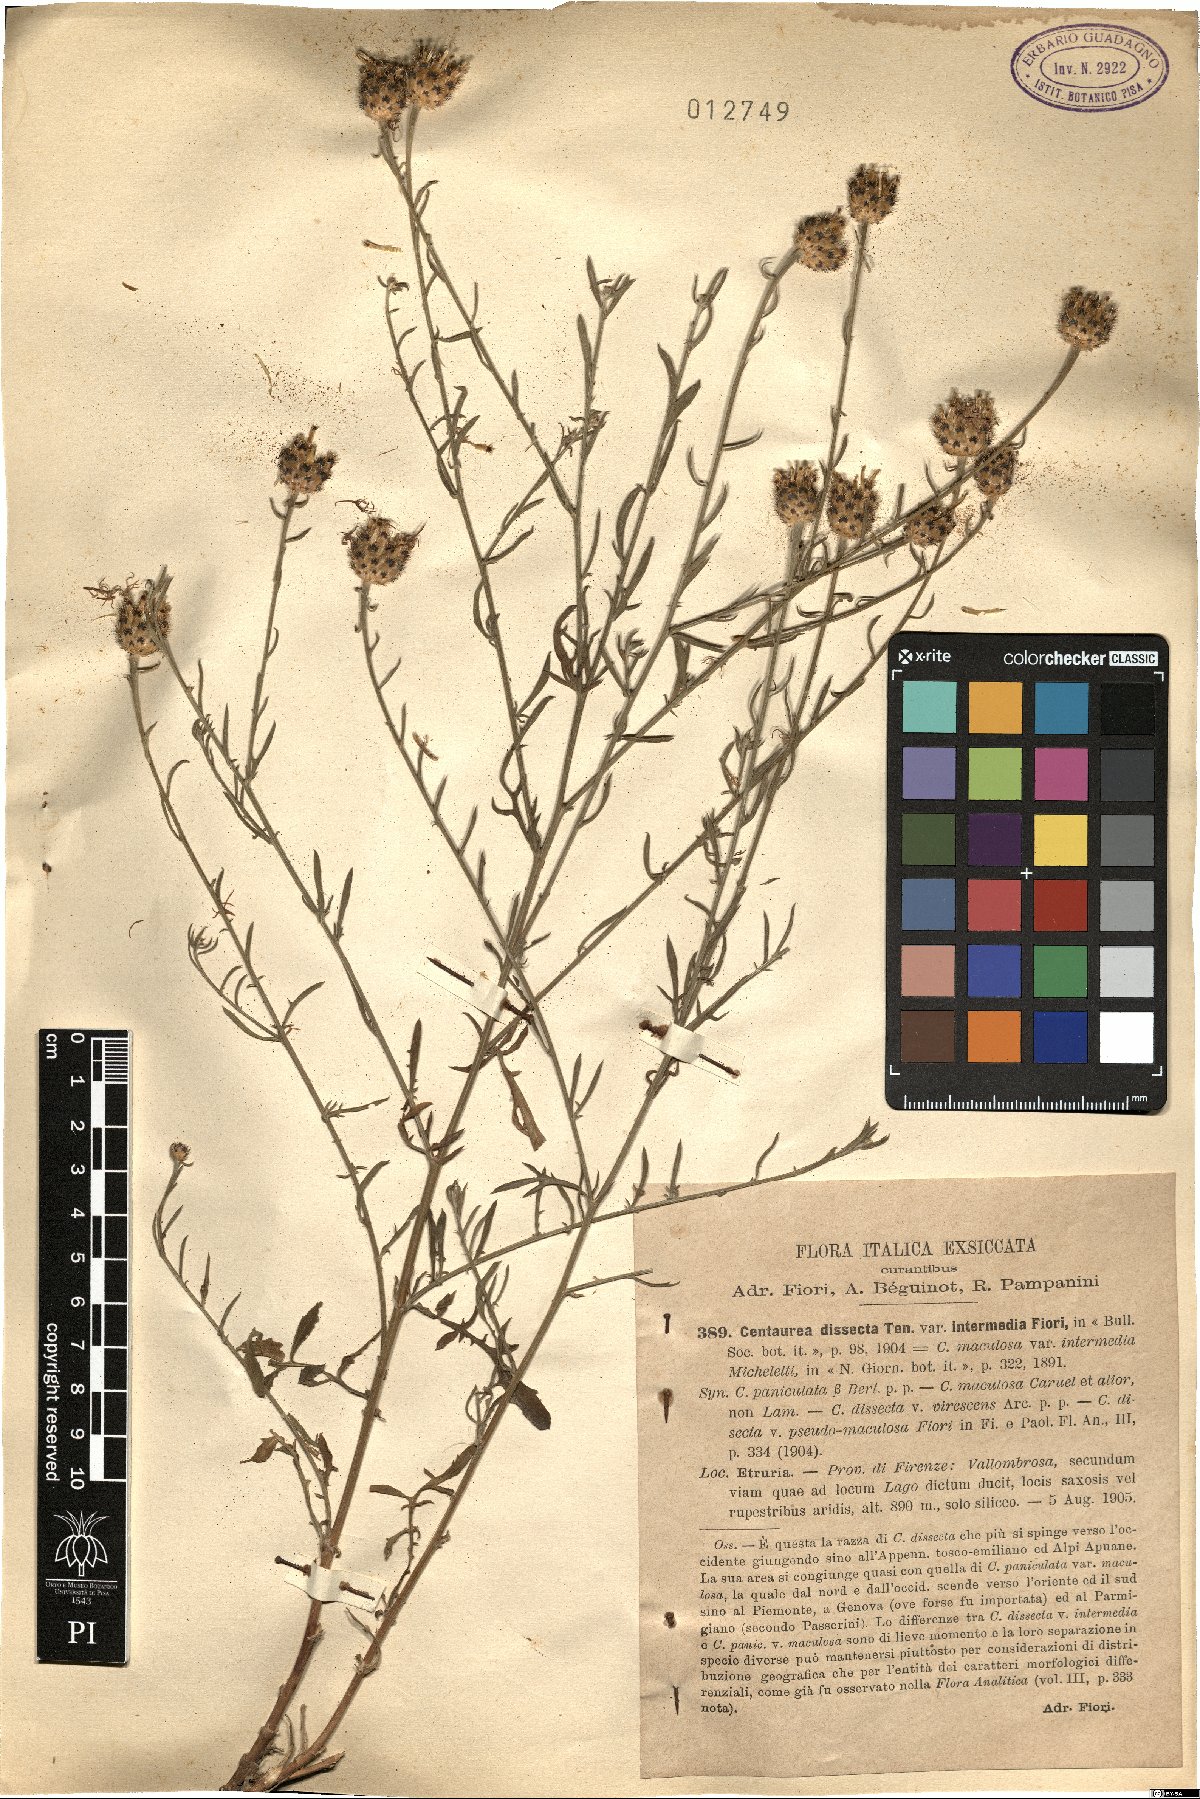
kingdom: Plantae
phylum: Tracheophyta
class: Magnoliopsida
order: Asterales
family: Asteraceae
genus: Centaurea
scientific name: Centaurea tenorei
